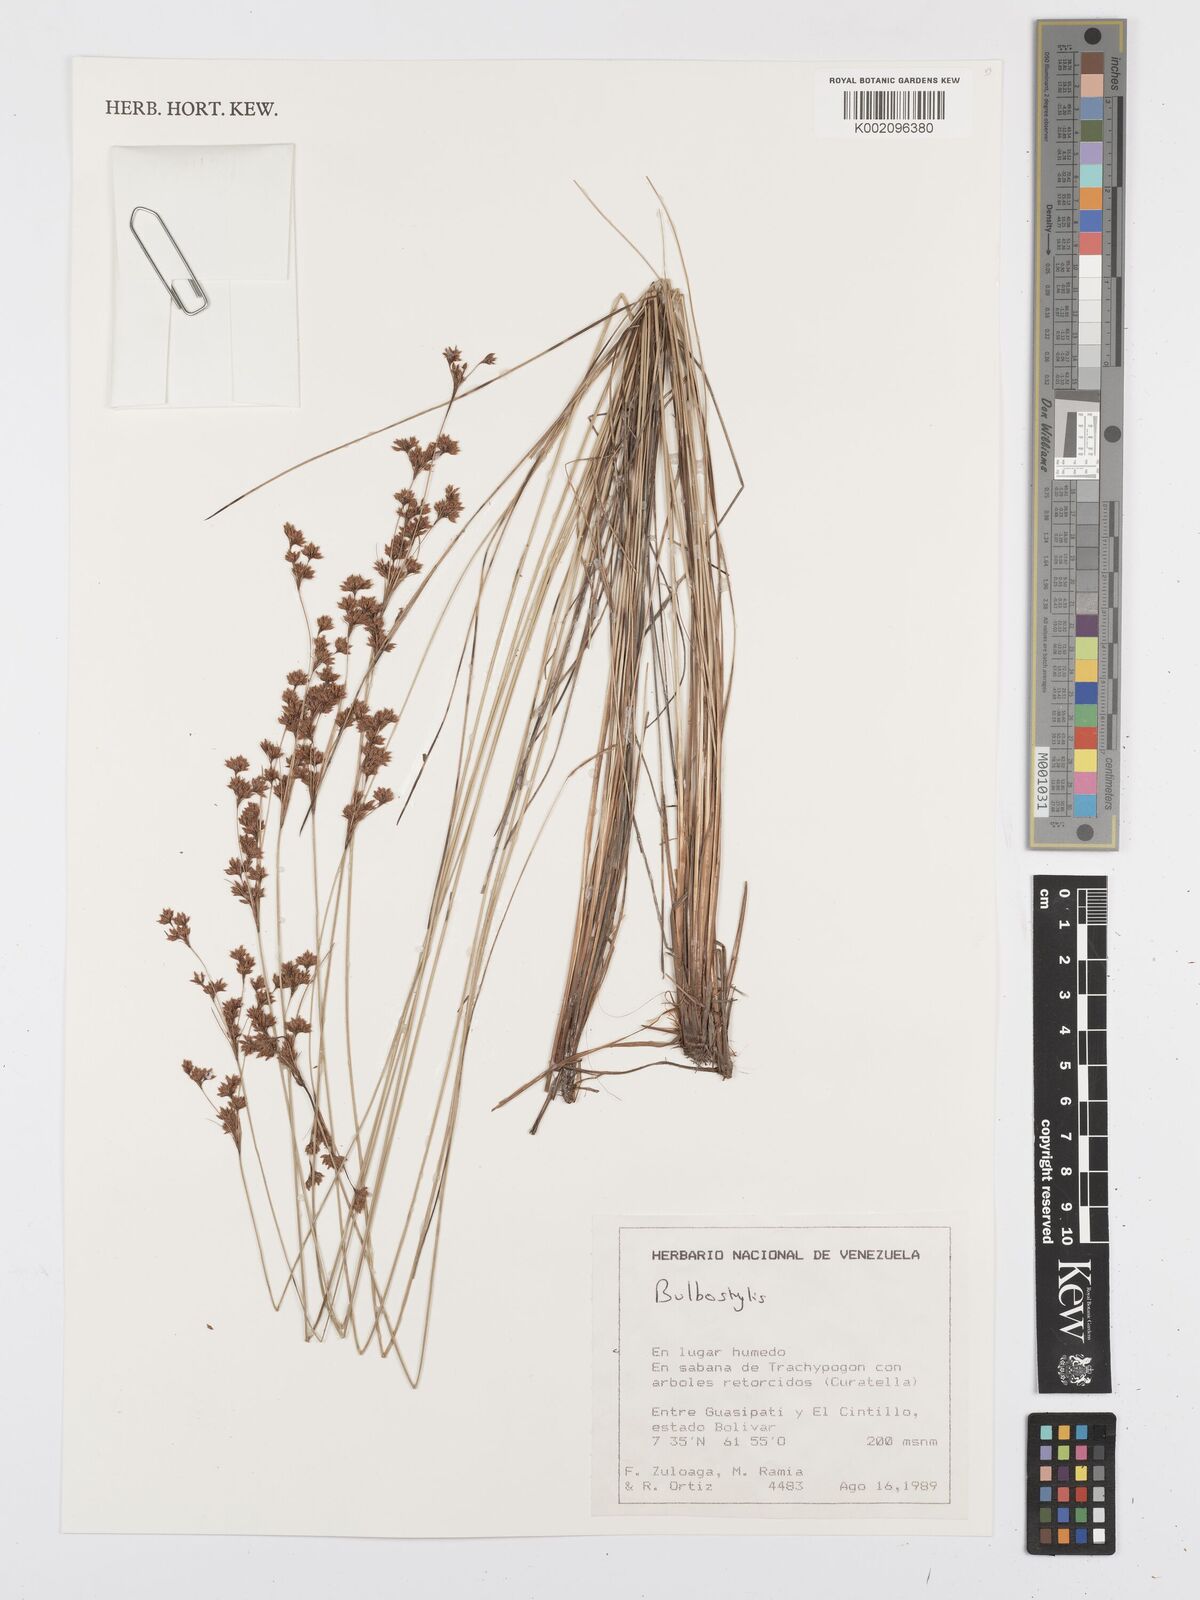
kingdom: Plantae
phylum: Tracheophyta
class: Liliopsida
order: Poales
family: Cyperaceae
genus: Bulbostylis
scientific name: Bulbostylis
